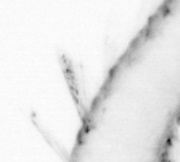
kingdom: Animalia
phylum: Annelida
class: Polychaeta
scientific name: Polychaeta
